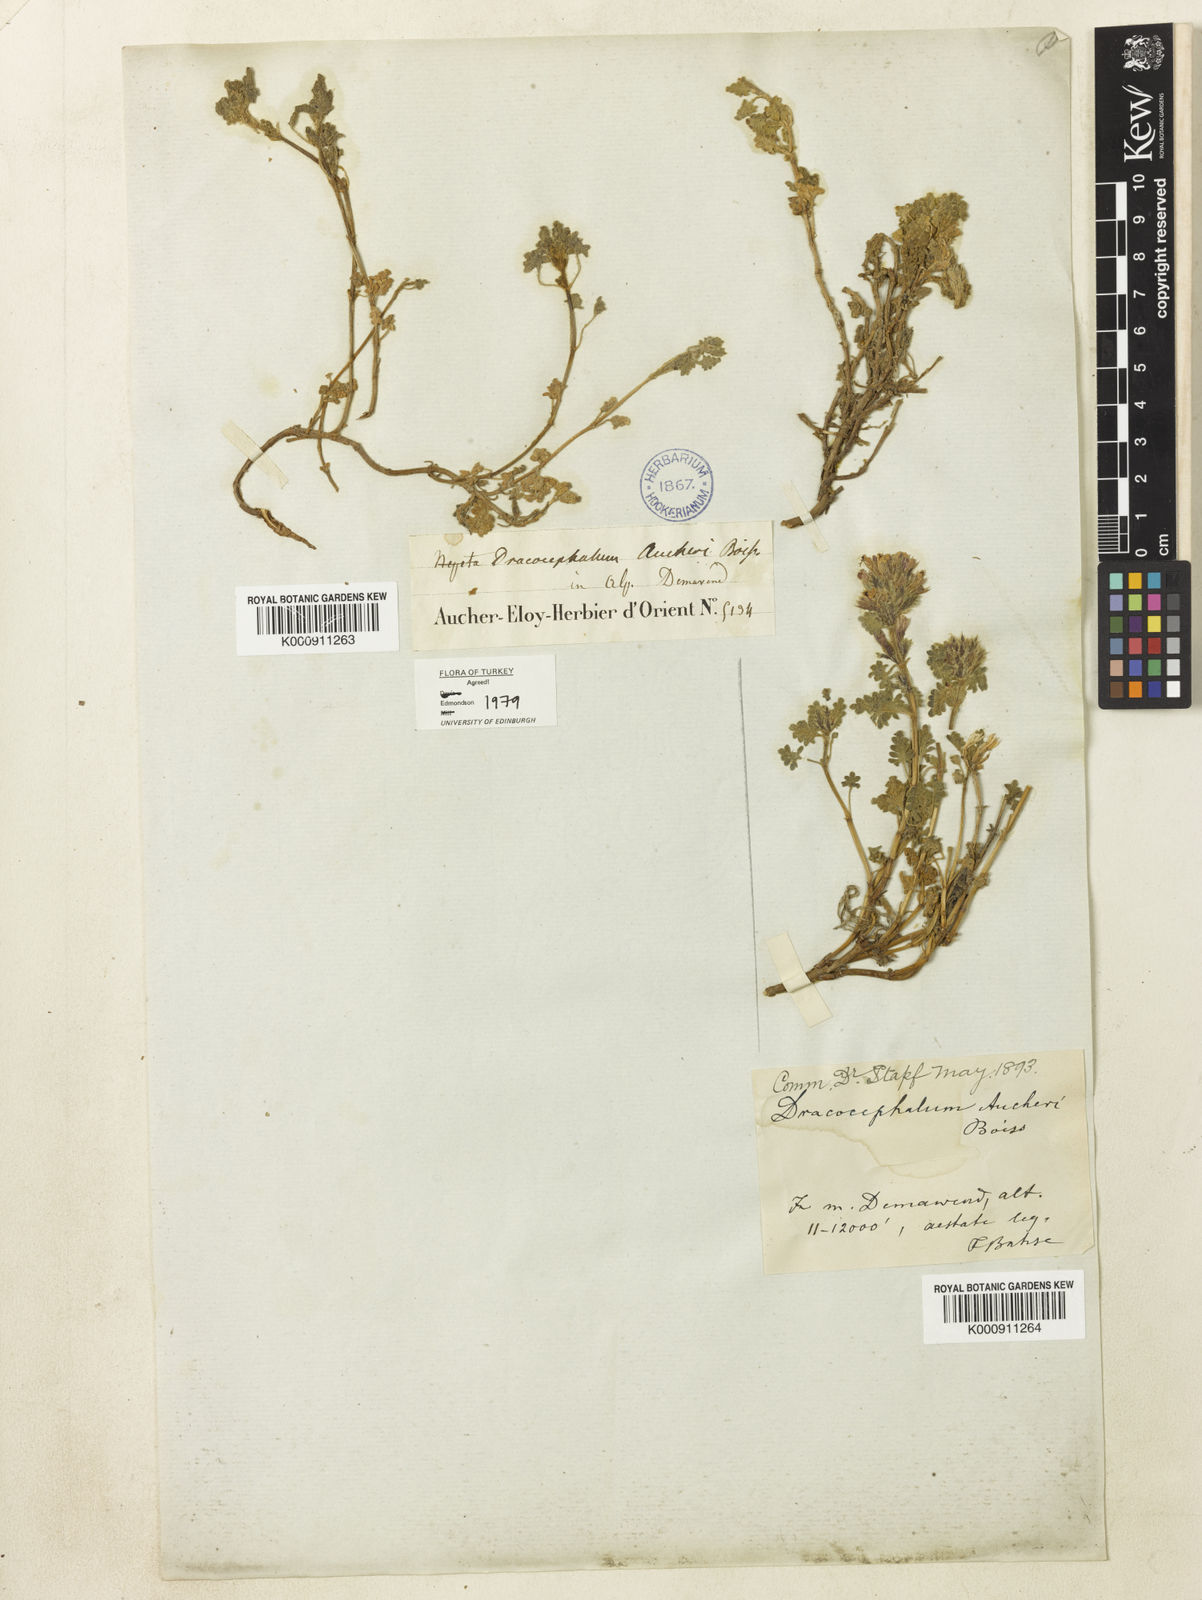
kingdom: Plantae
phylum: Tracheophyta
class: Magnoliopsida
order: Lamiales
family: Lamiaceae
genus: Dracocephalum
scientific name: Dracocephalum aucheri
